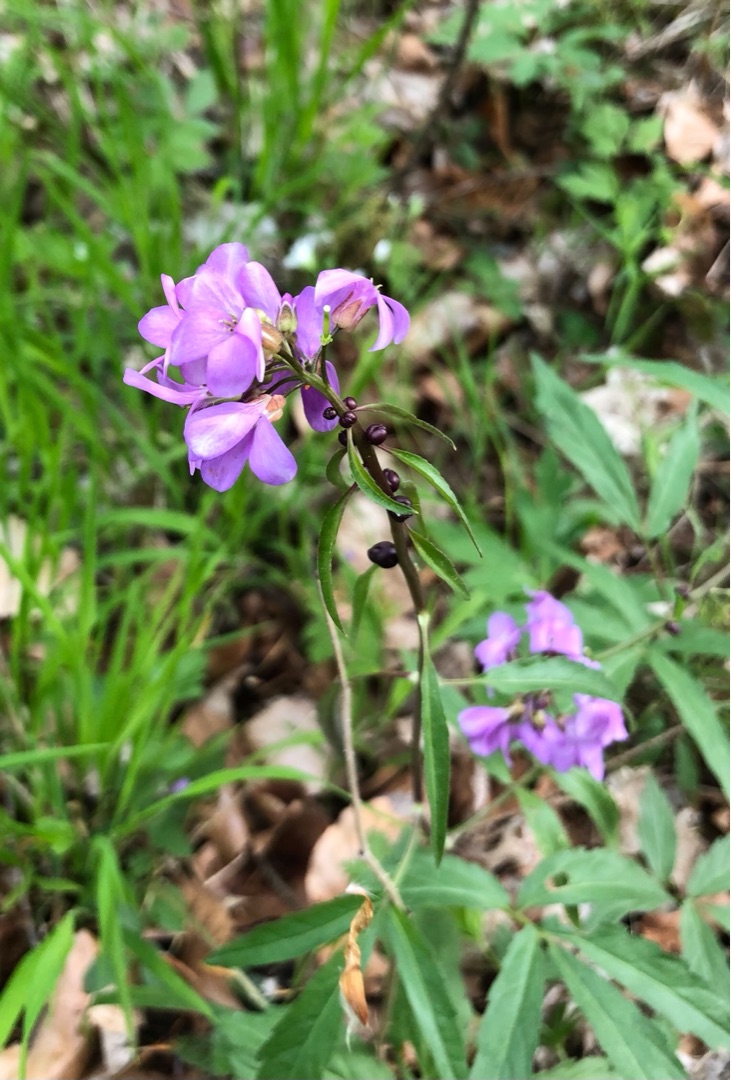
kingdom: Plantae
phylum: Tracheophyta
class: Magnoliopsida
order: Brassicales
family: Brassicaceae
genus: Cardamine
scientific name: Cardamine bulbifera
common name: Tandrod
